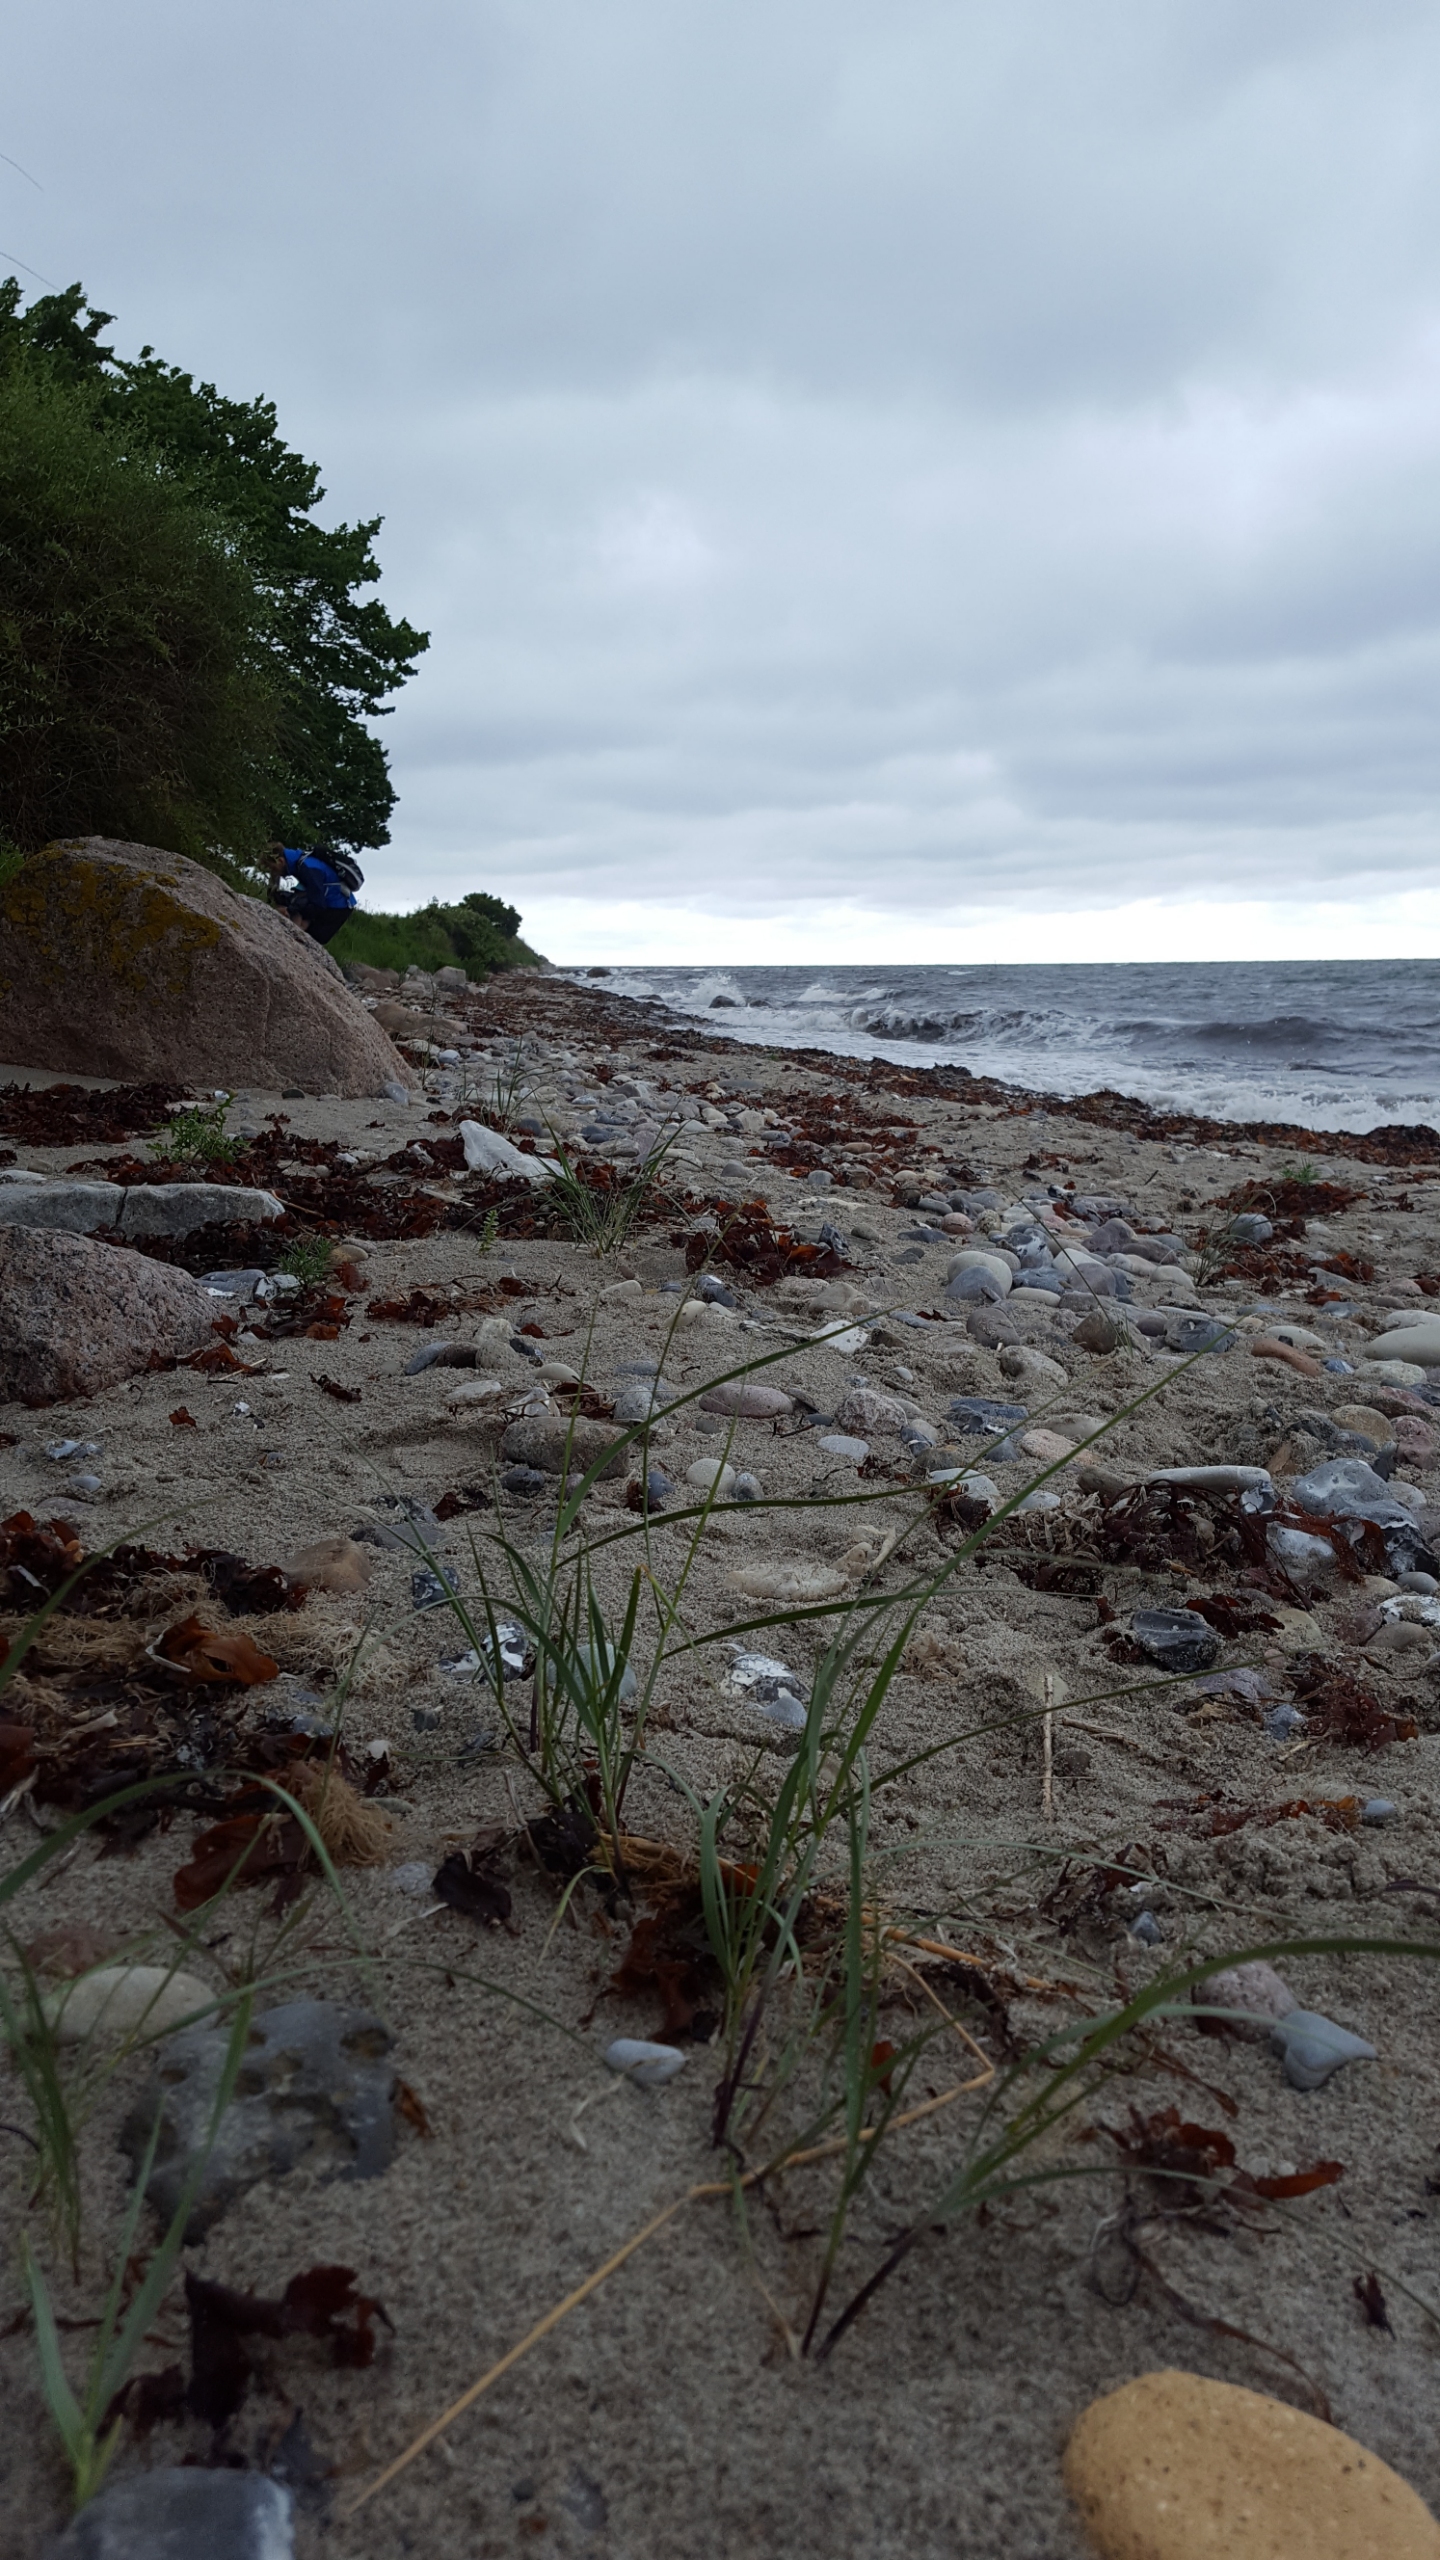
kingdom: Plantae
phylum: Tracheophyta
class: Liliopsida
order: Poales
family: Poaceae
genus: Thinopyrum
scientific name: Thinopyrum junceum
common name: Strand-kvik
